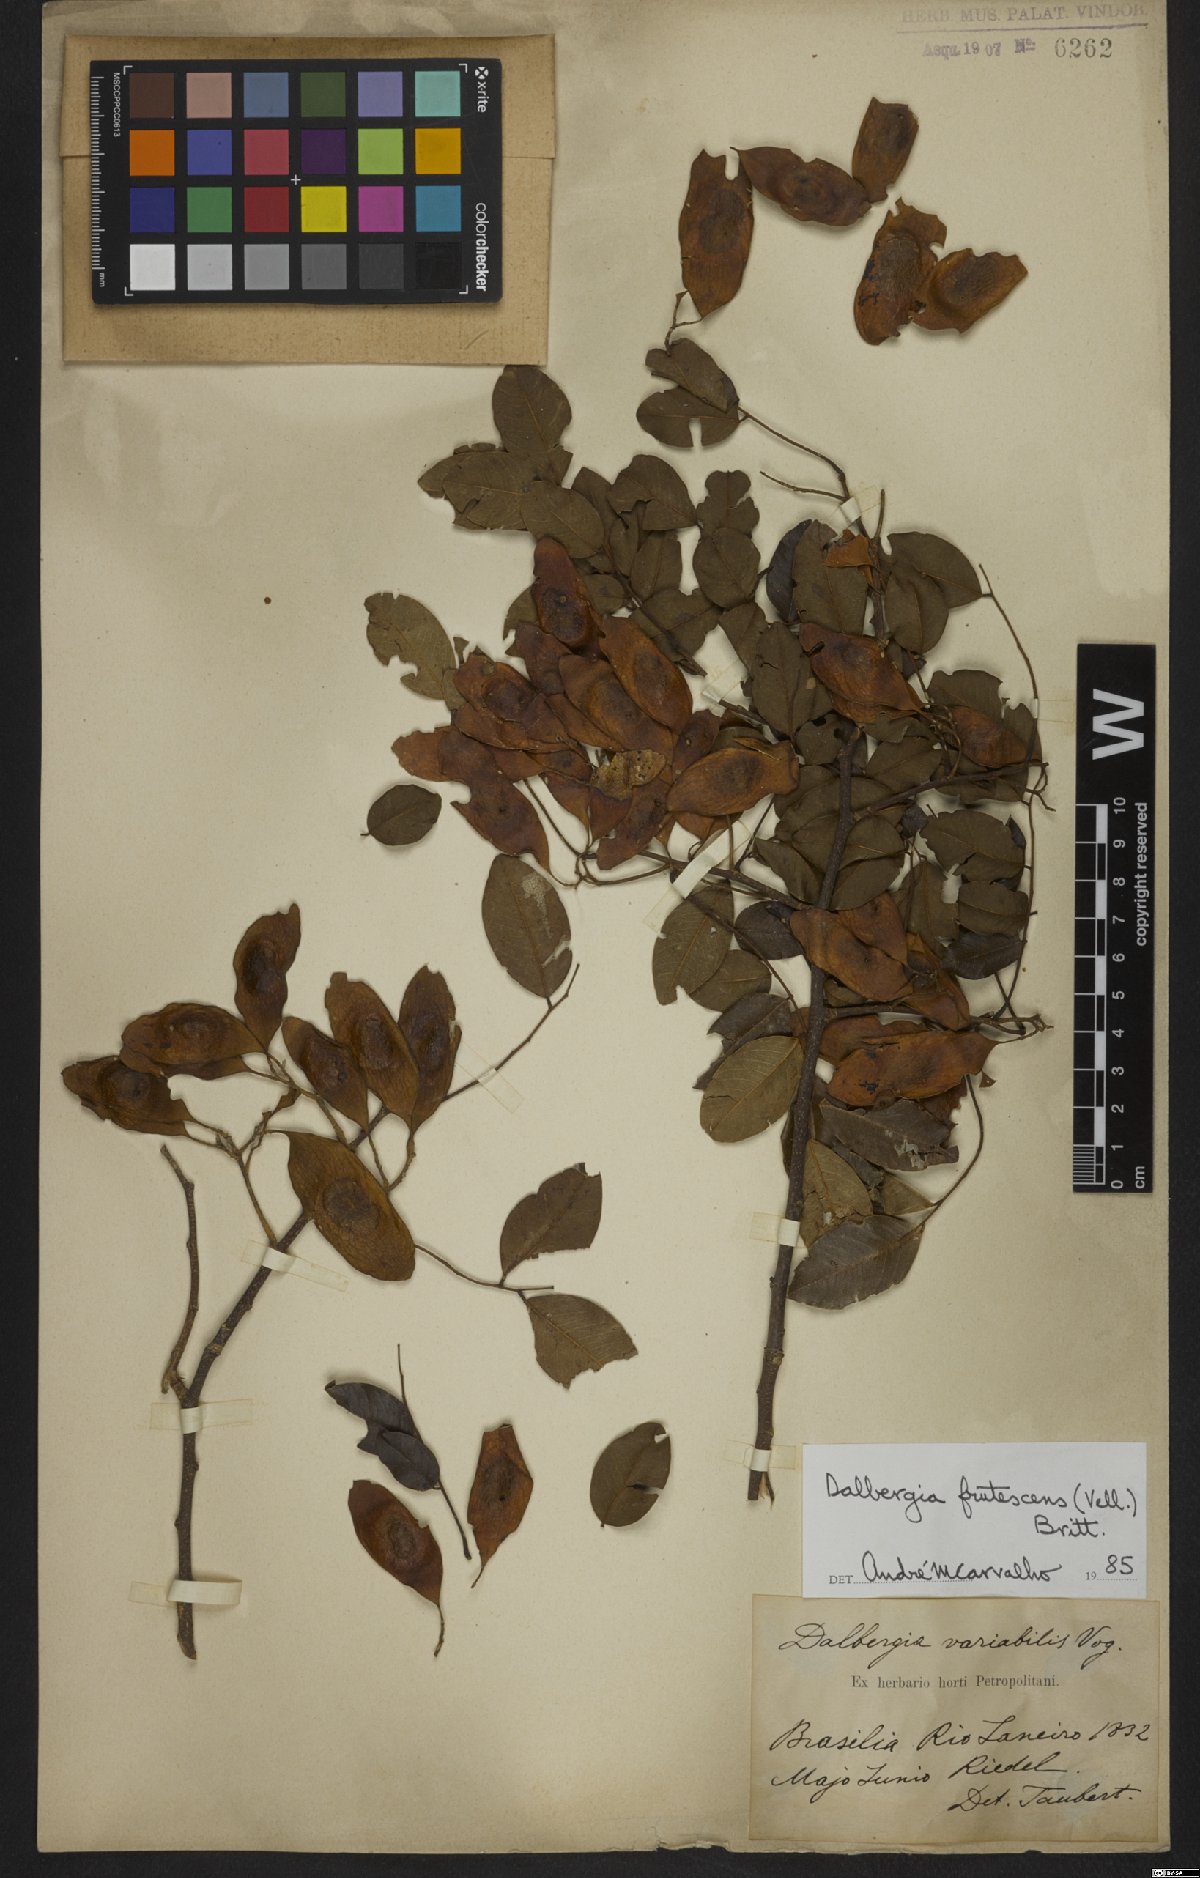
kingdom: Plantae
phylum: Tracheophyta
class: Magnoliopsida
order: Fabales
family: Fabaceae
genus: Dalbergia
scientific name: Dalbergia frutescens
